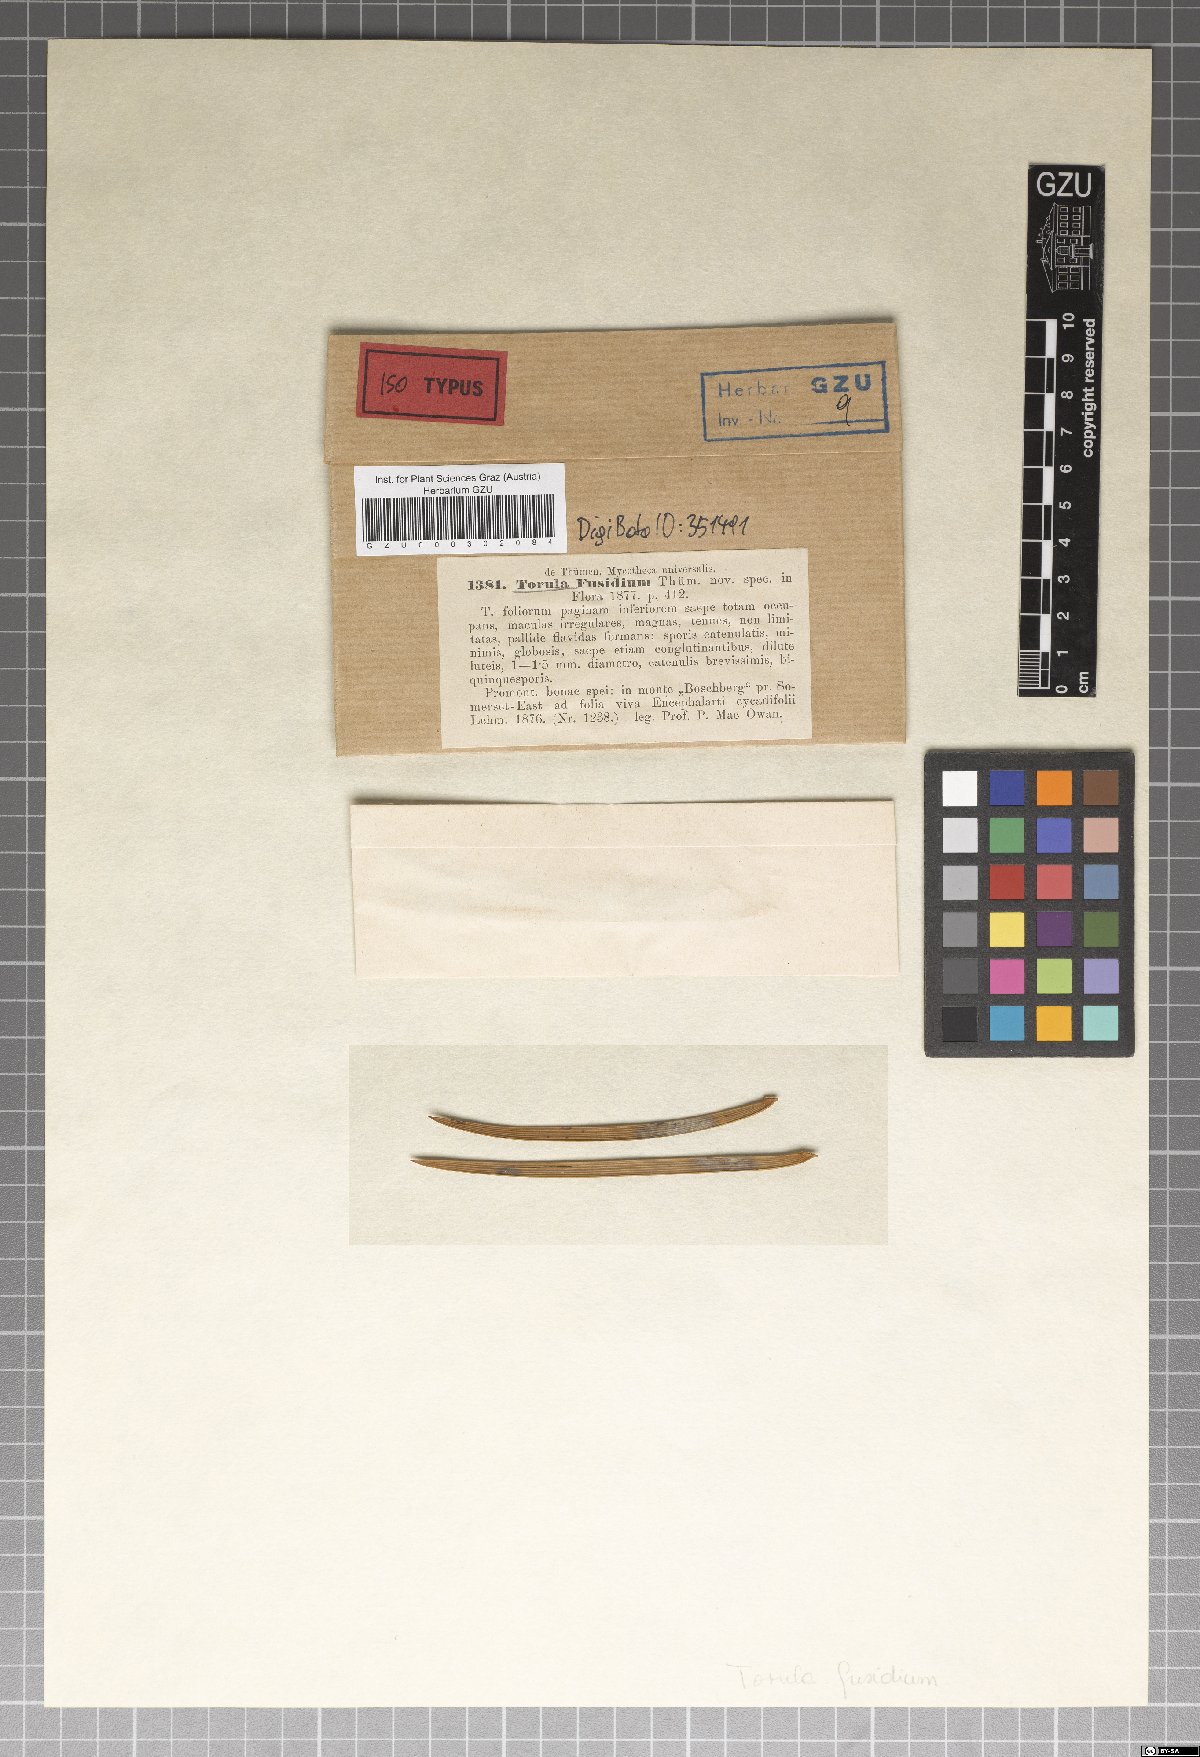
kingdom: Fungi
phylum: Ascomycota
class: Dothideomycetes
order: Capnodiales
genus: Torula
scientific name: Torula
